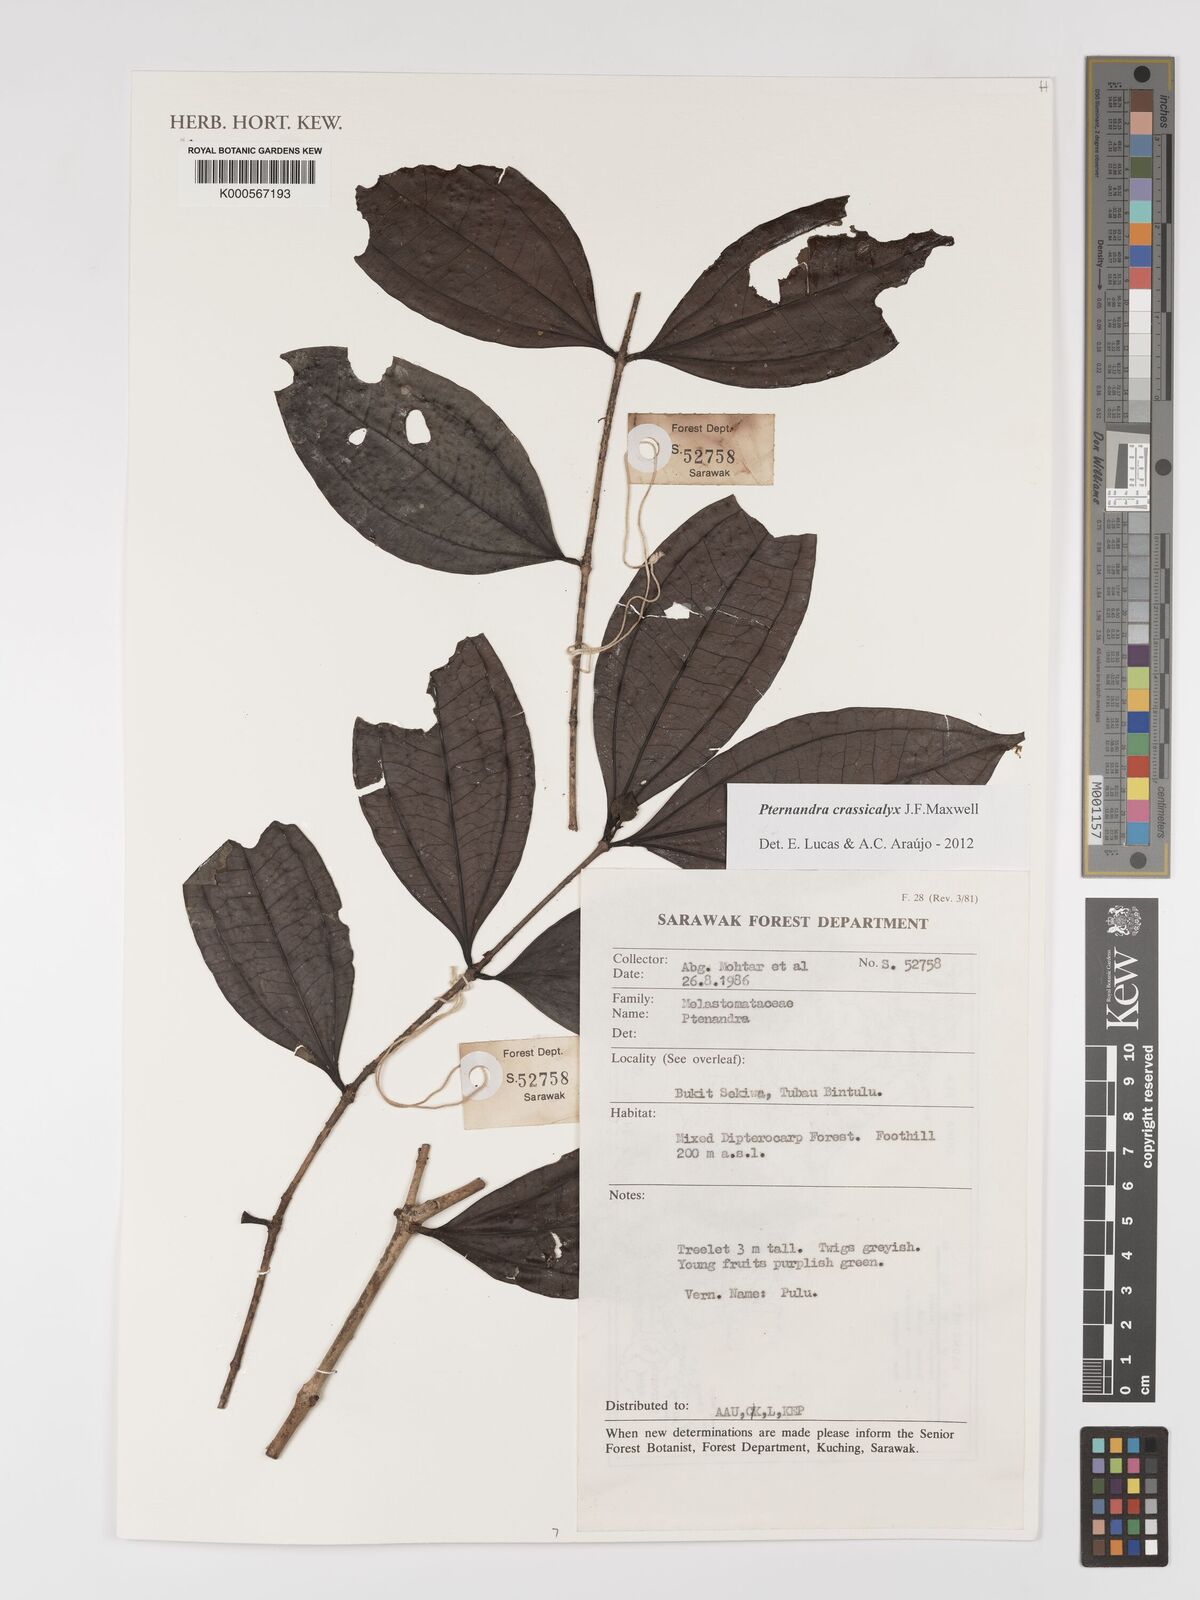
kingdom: Plantae
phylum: Tracheophyta
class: Magnoliopsida
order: Myrtales
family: Melastomataceae
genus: Pternandra
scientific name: Pternandra crassicalyx
